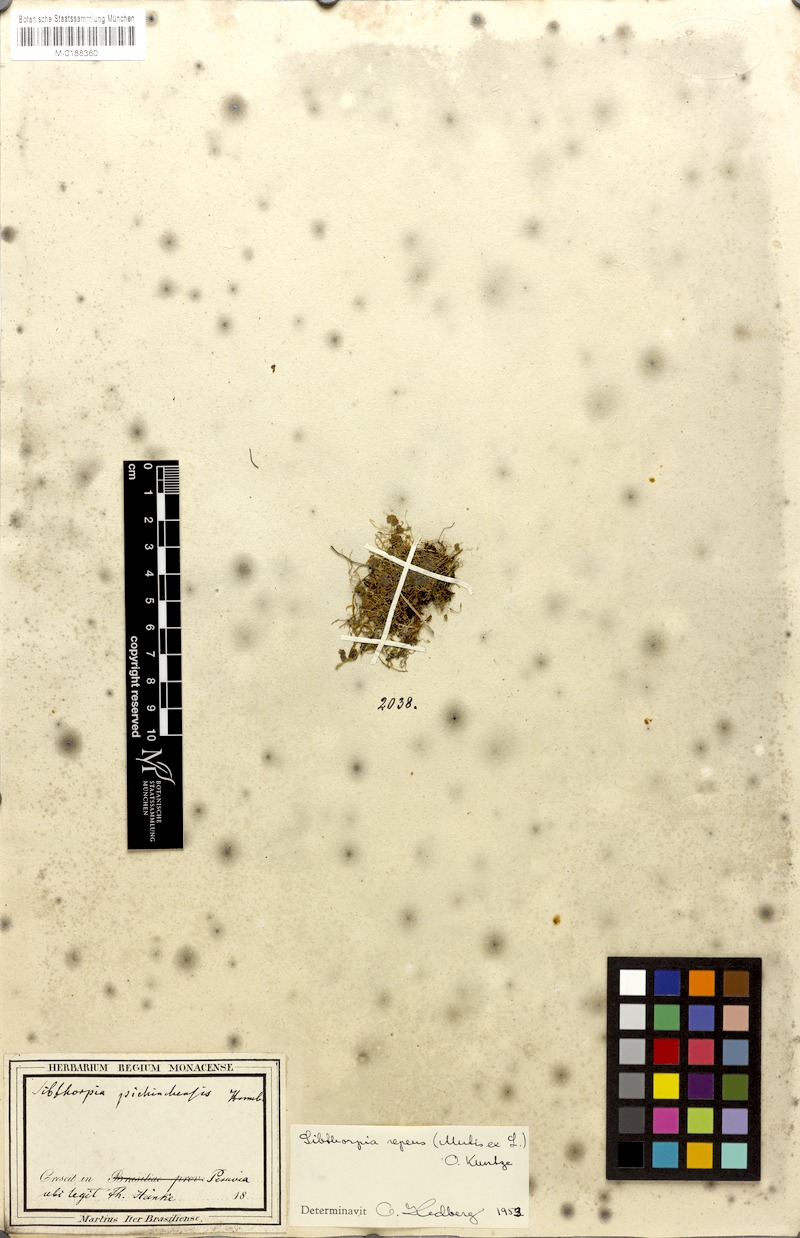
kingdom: Plantae
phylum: Tracheophyta
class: Magnoliopsida
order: Lamiales
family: Plantaginaceae
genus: Sibthorpia
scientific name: Sibthorpia repens
